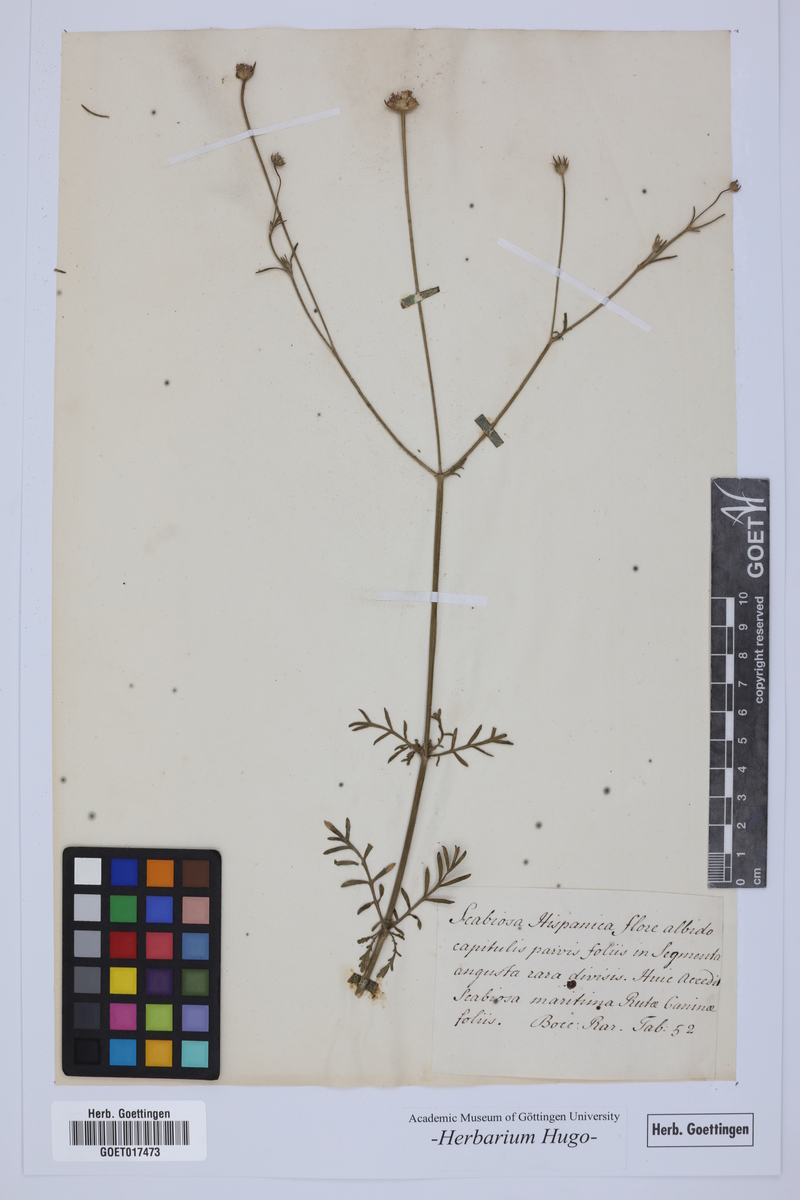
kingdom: Plantae
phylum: Tracheophyta
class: Magnoliopsida
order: Dipsacales
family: Caprifoliaceae
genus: Scabiosa
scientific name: Scabiosa
